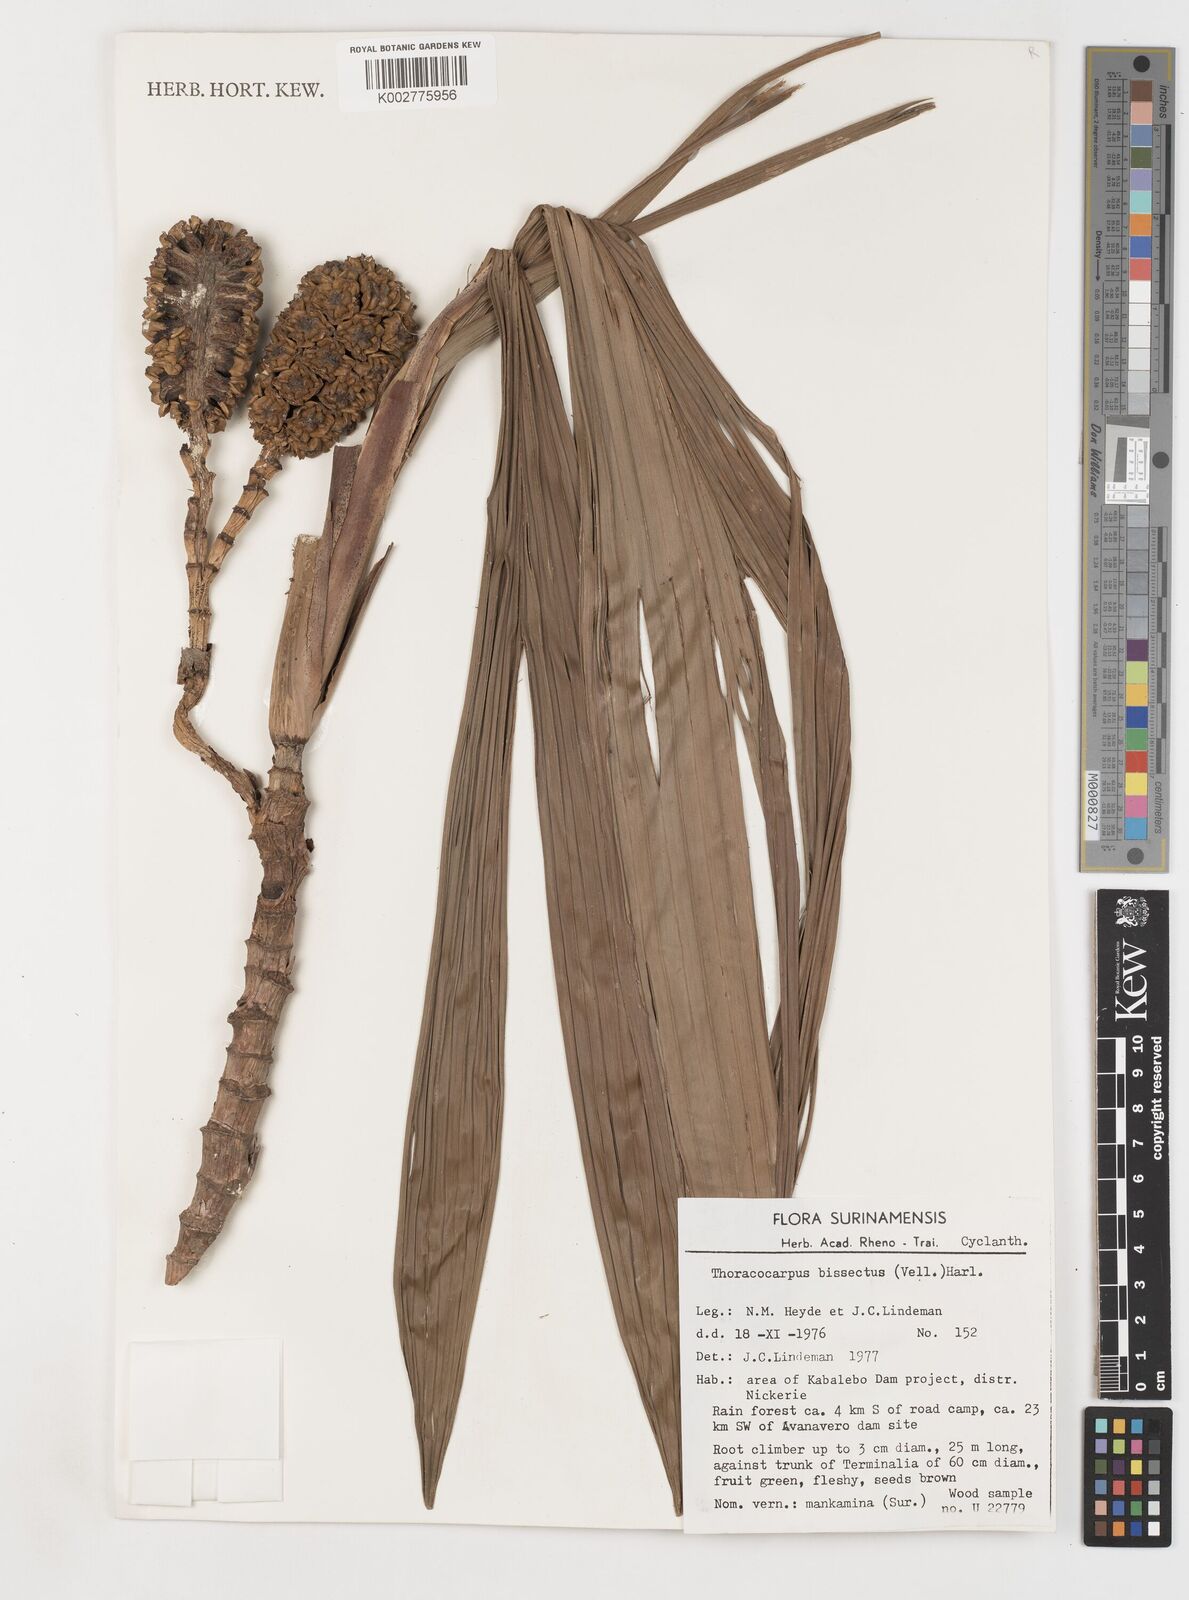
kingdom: Plantae
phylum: Tracheophyta
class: Liliopsida
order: Pandanales
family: Cyclanthaceae
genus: Thoracocarpus
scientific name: Thoracocarpus bissectus
